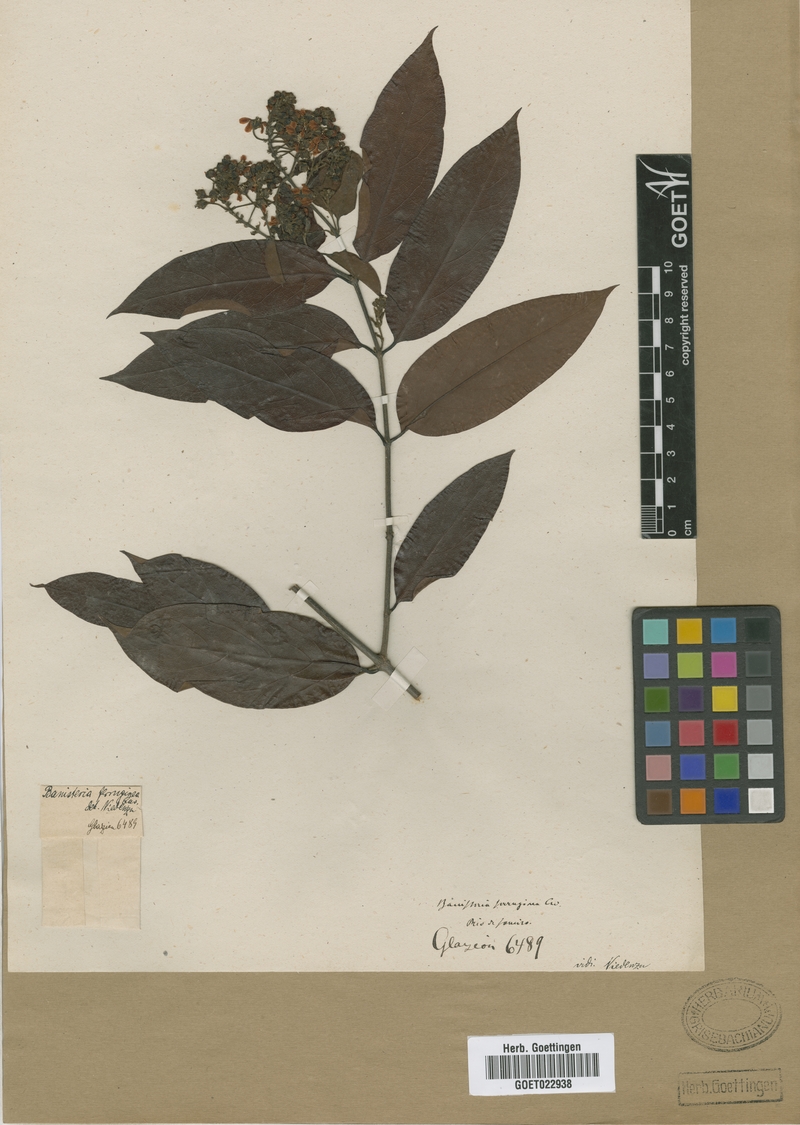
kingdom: Plantae
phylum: Tracheophyta
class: Magnoliopsida
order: Malpighiales
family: Malpighiaceae
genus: Bronwenia
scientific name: Bronwenia ferruginea
